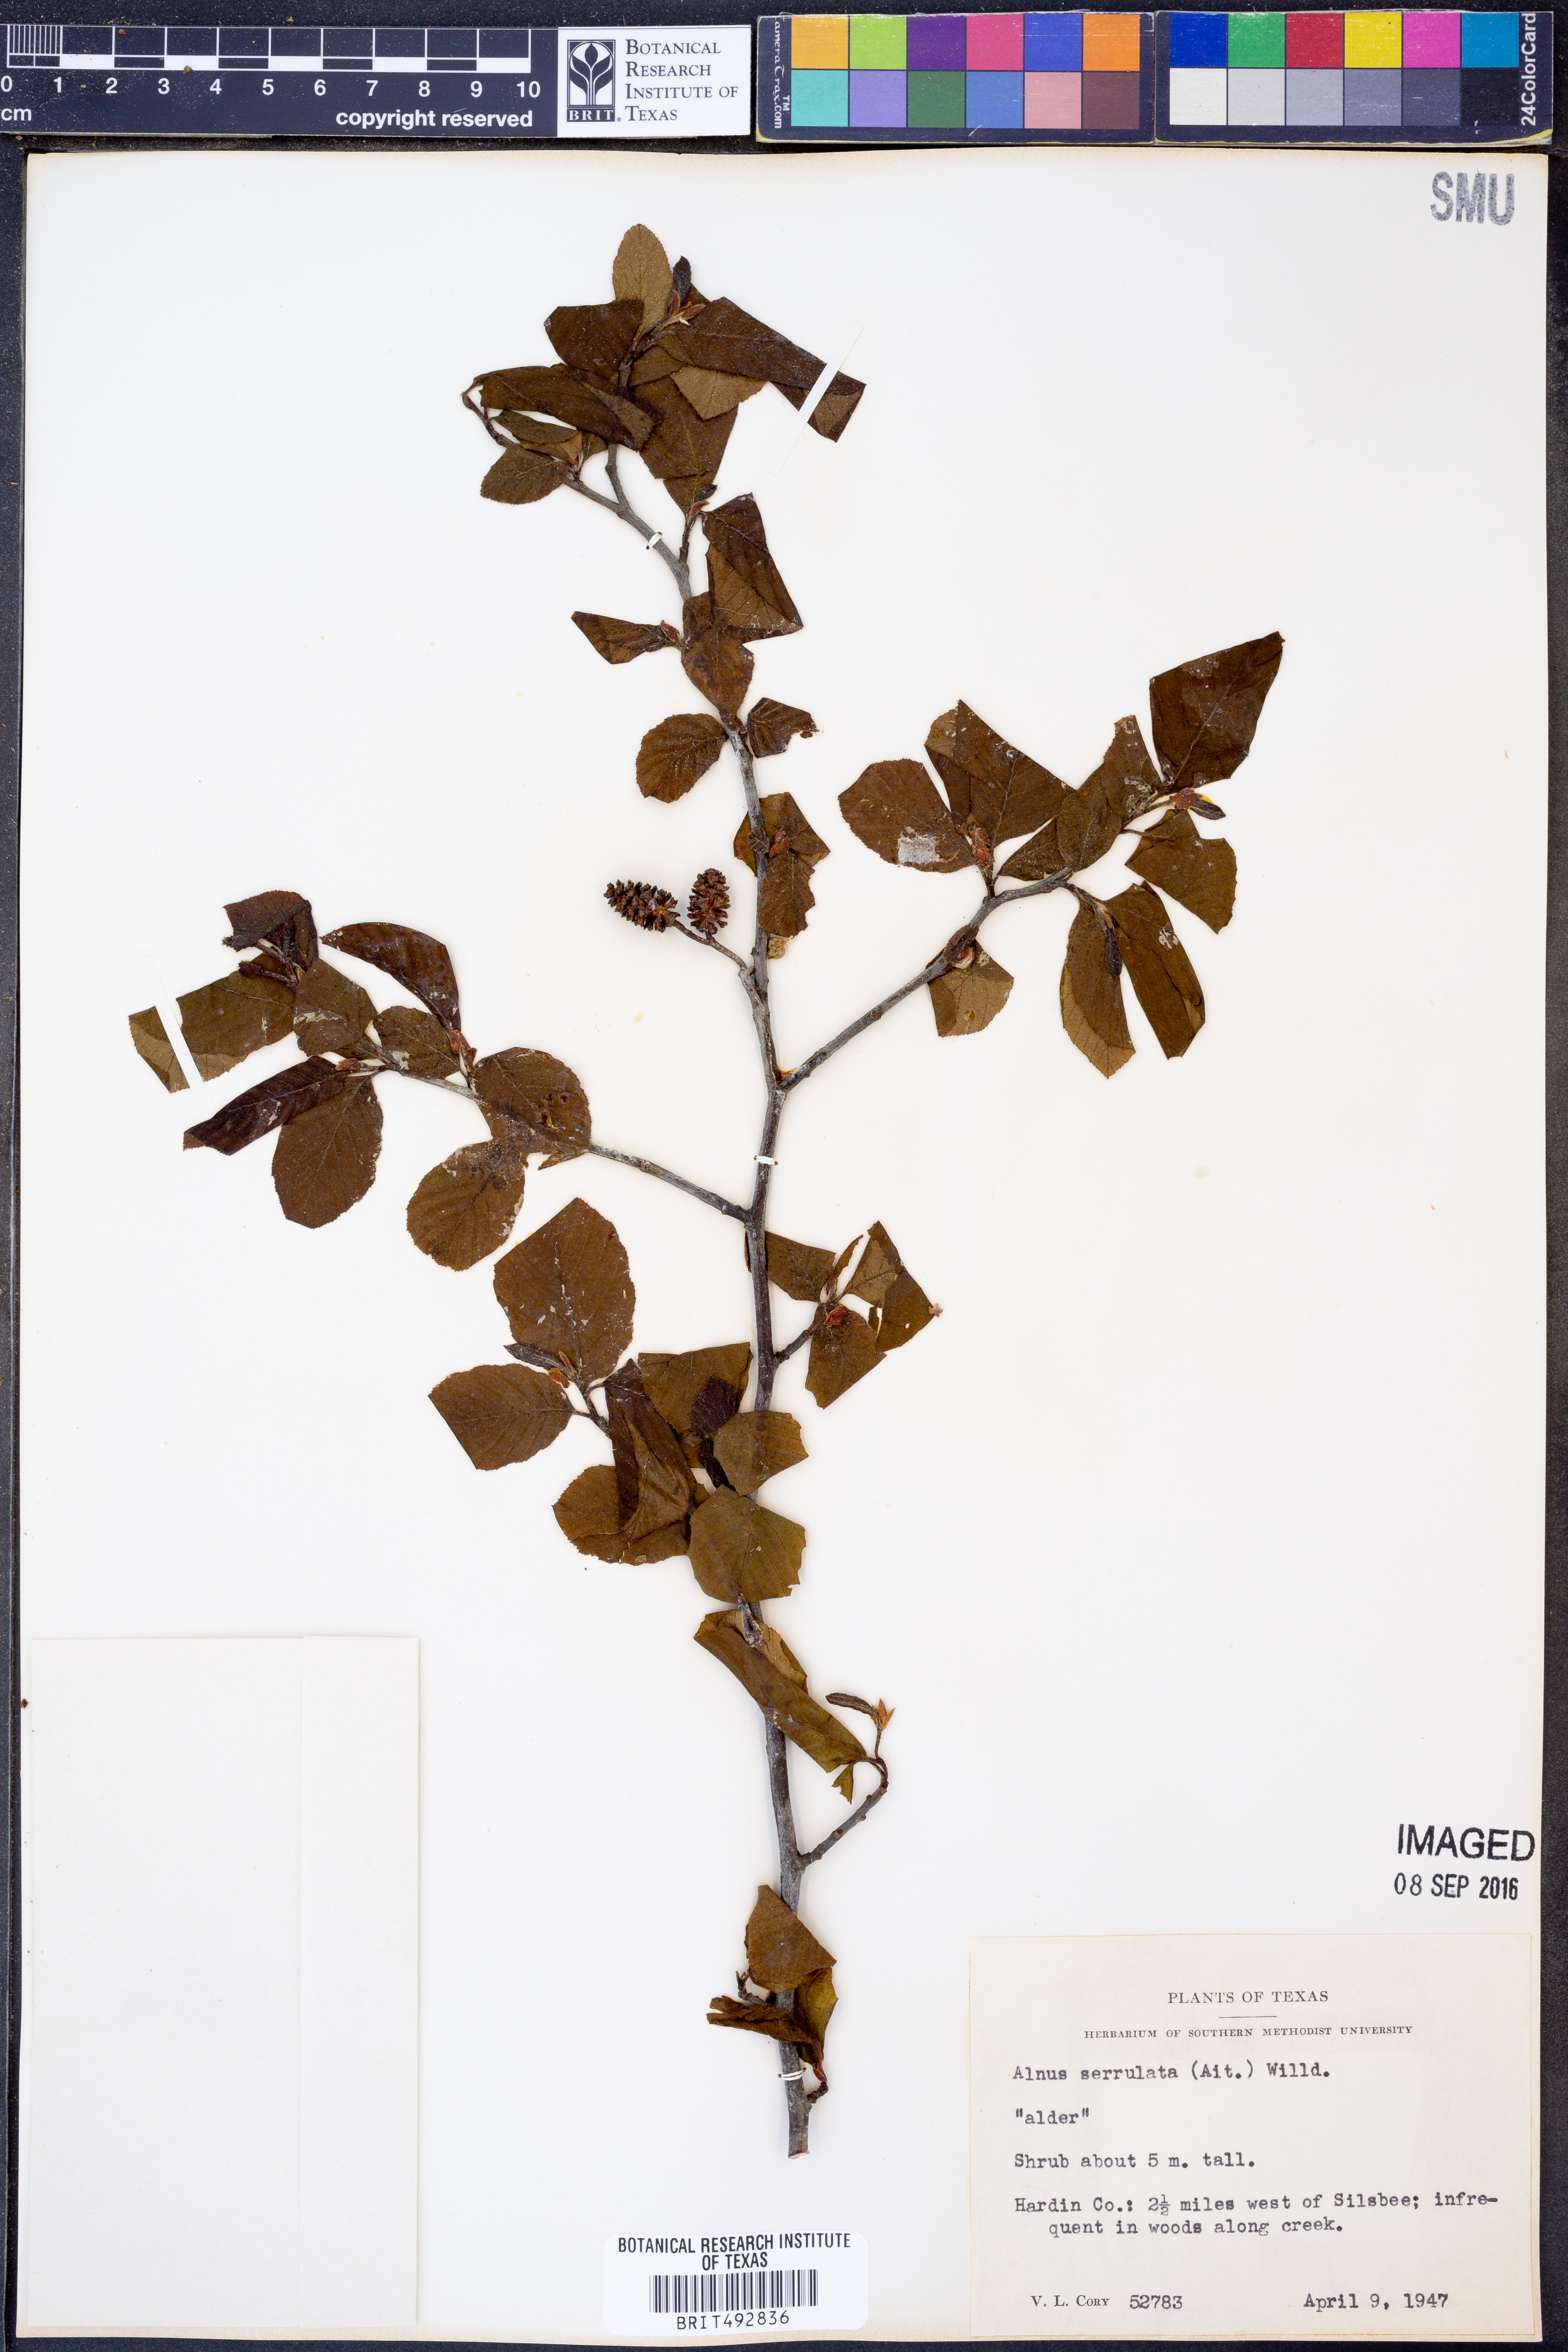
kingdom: Plantae
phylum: Tracheophyta
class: Magnoliopsida
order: Fagales
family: Betulaceae
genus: Alnus
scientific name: Alnus serrulata
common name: Hazel alder
